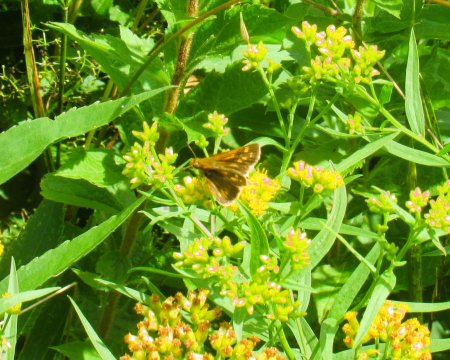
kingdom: Animalia
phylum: Arthropoda
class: Insecta
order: Lepidoptera
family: Hesperiidae
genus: Polites
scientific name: Polites coras
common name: Peck's Skipper
